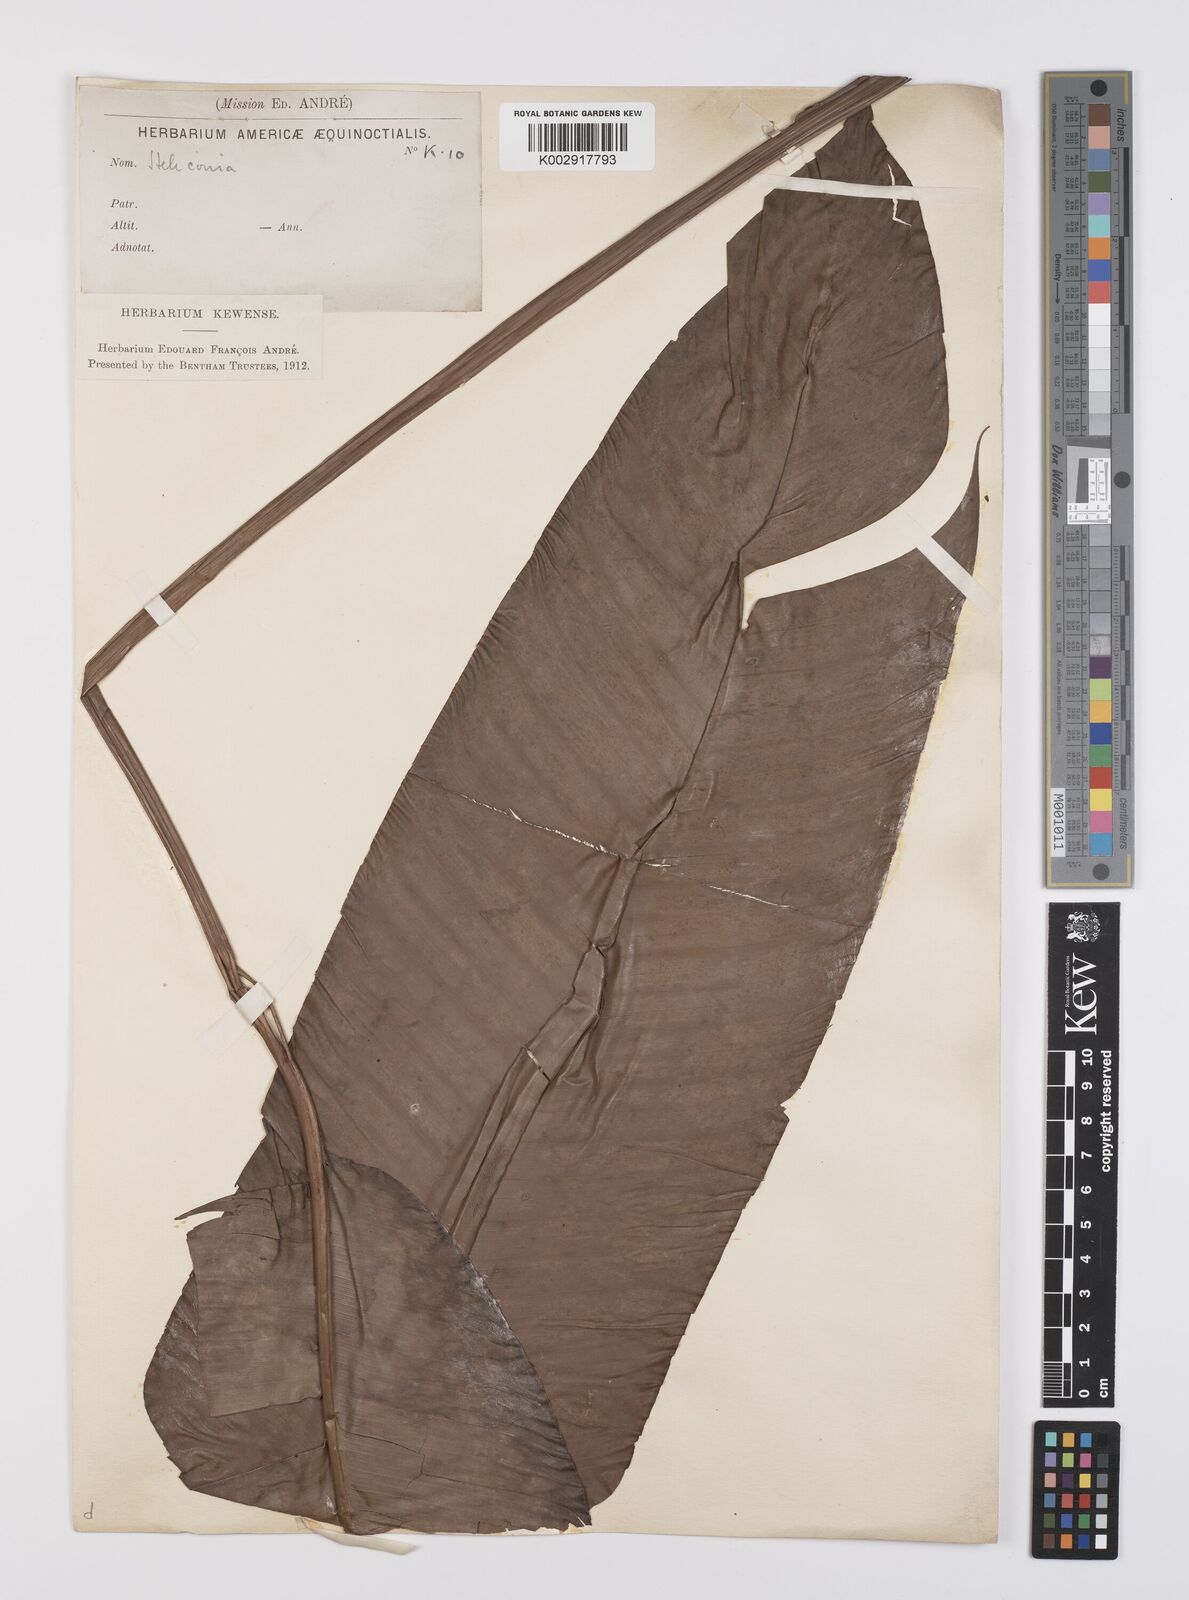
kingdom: Plantae
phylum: Tracheophyta
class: Liliopsida
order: Zingiberales
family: Heliconiaceae
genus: Heliconia
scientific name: Heliconia
